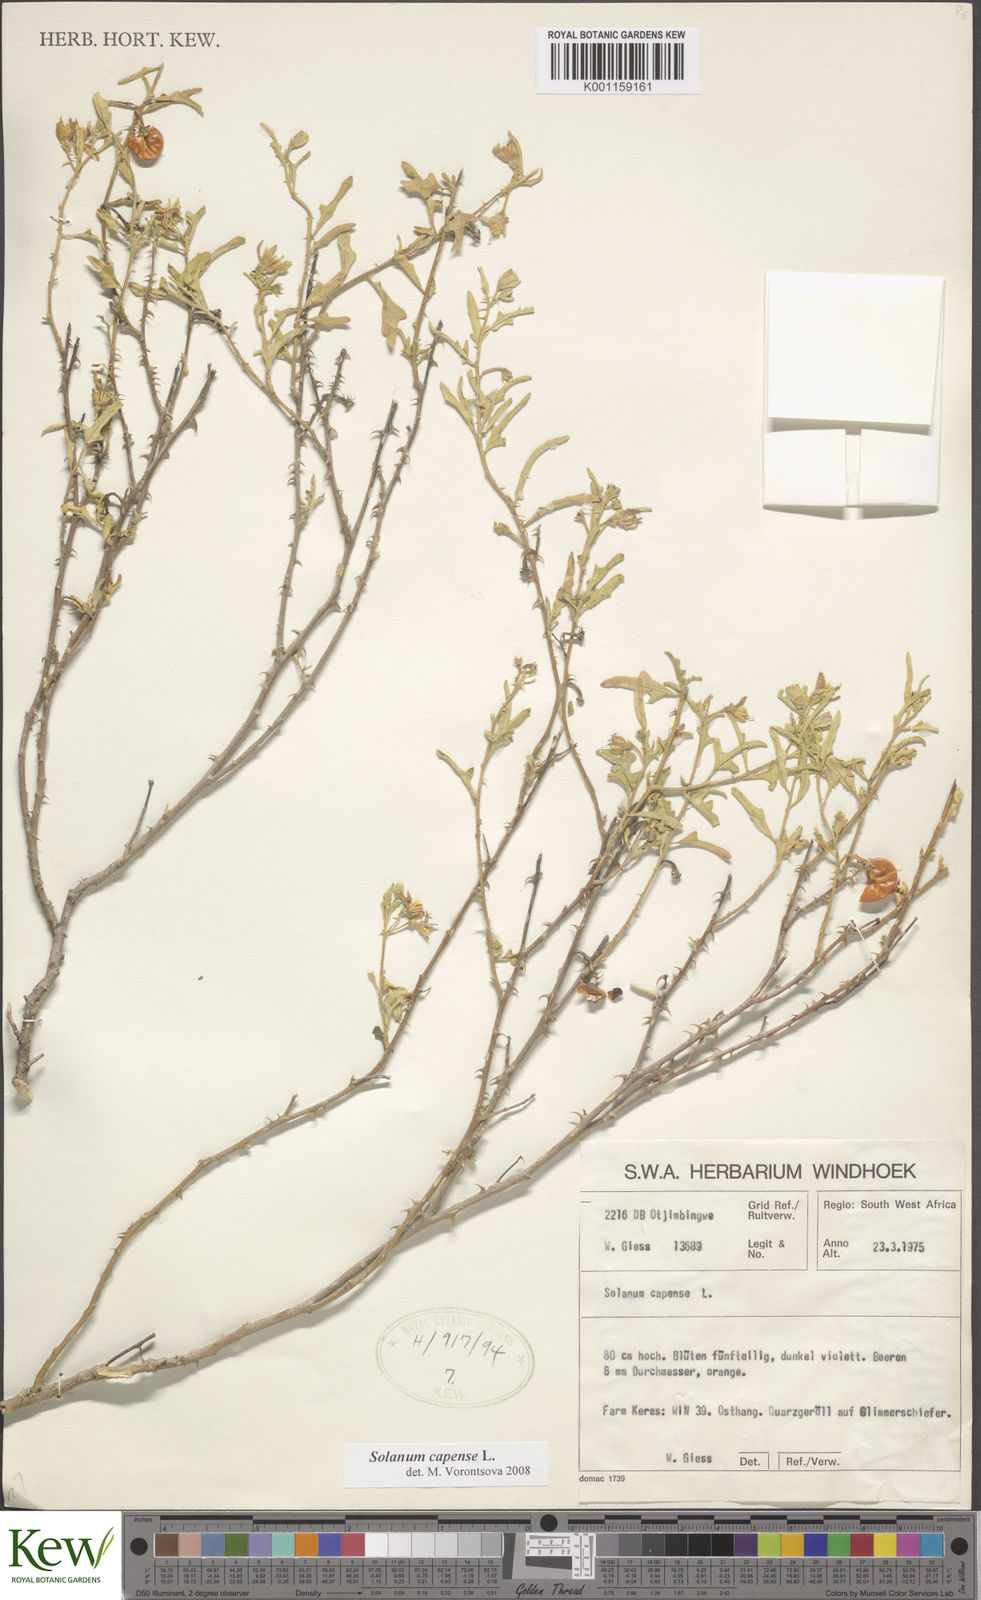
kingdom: Plantae
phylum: Tracheophyta
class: Magnoliopsida
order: Solanales
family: Solanaceae
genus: Solanum
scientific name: Solanum capense
